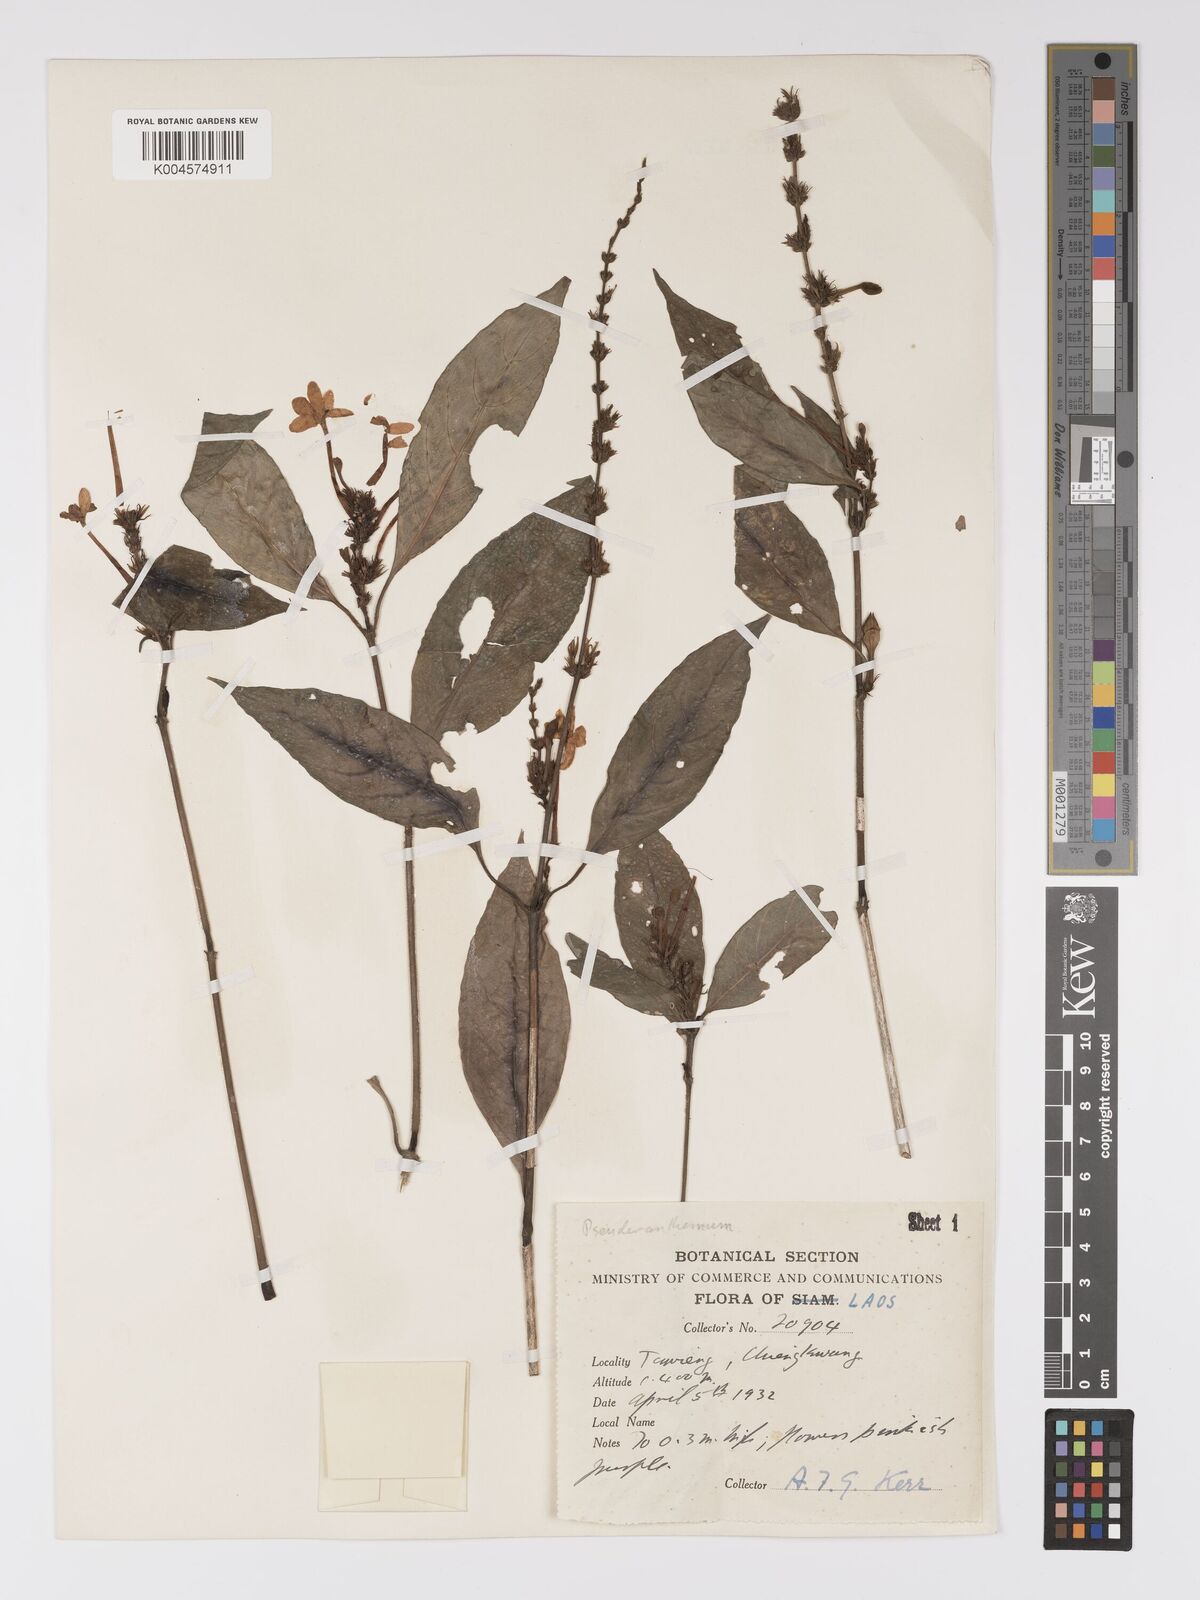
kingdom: Plantae
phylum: Tracheophyta
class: Magnoliopsida
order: Lamiales
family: Acanthaceae
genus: Pseuderanthemum
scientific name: Pseuderanthemum
